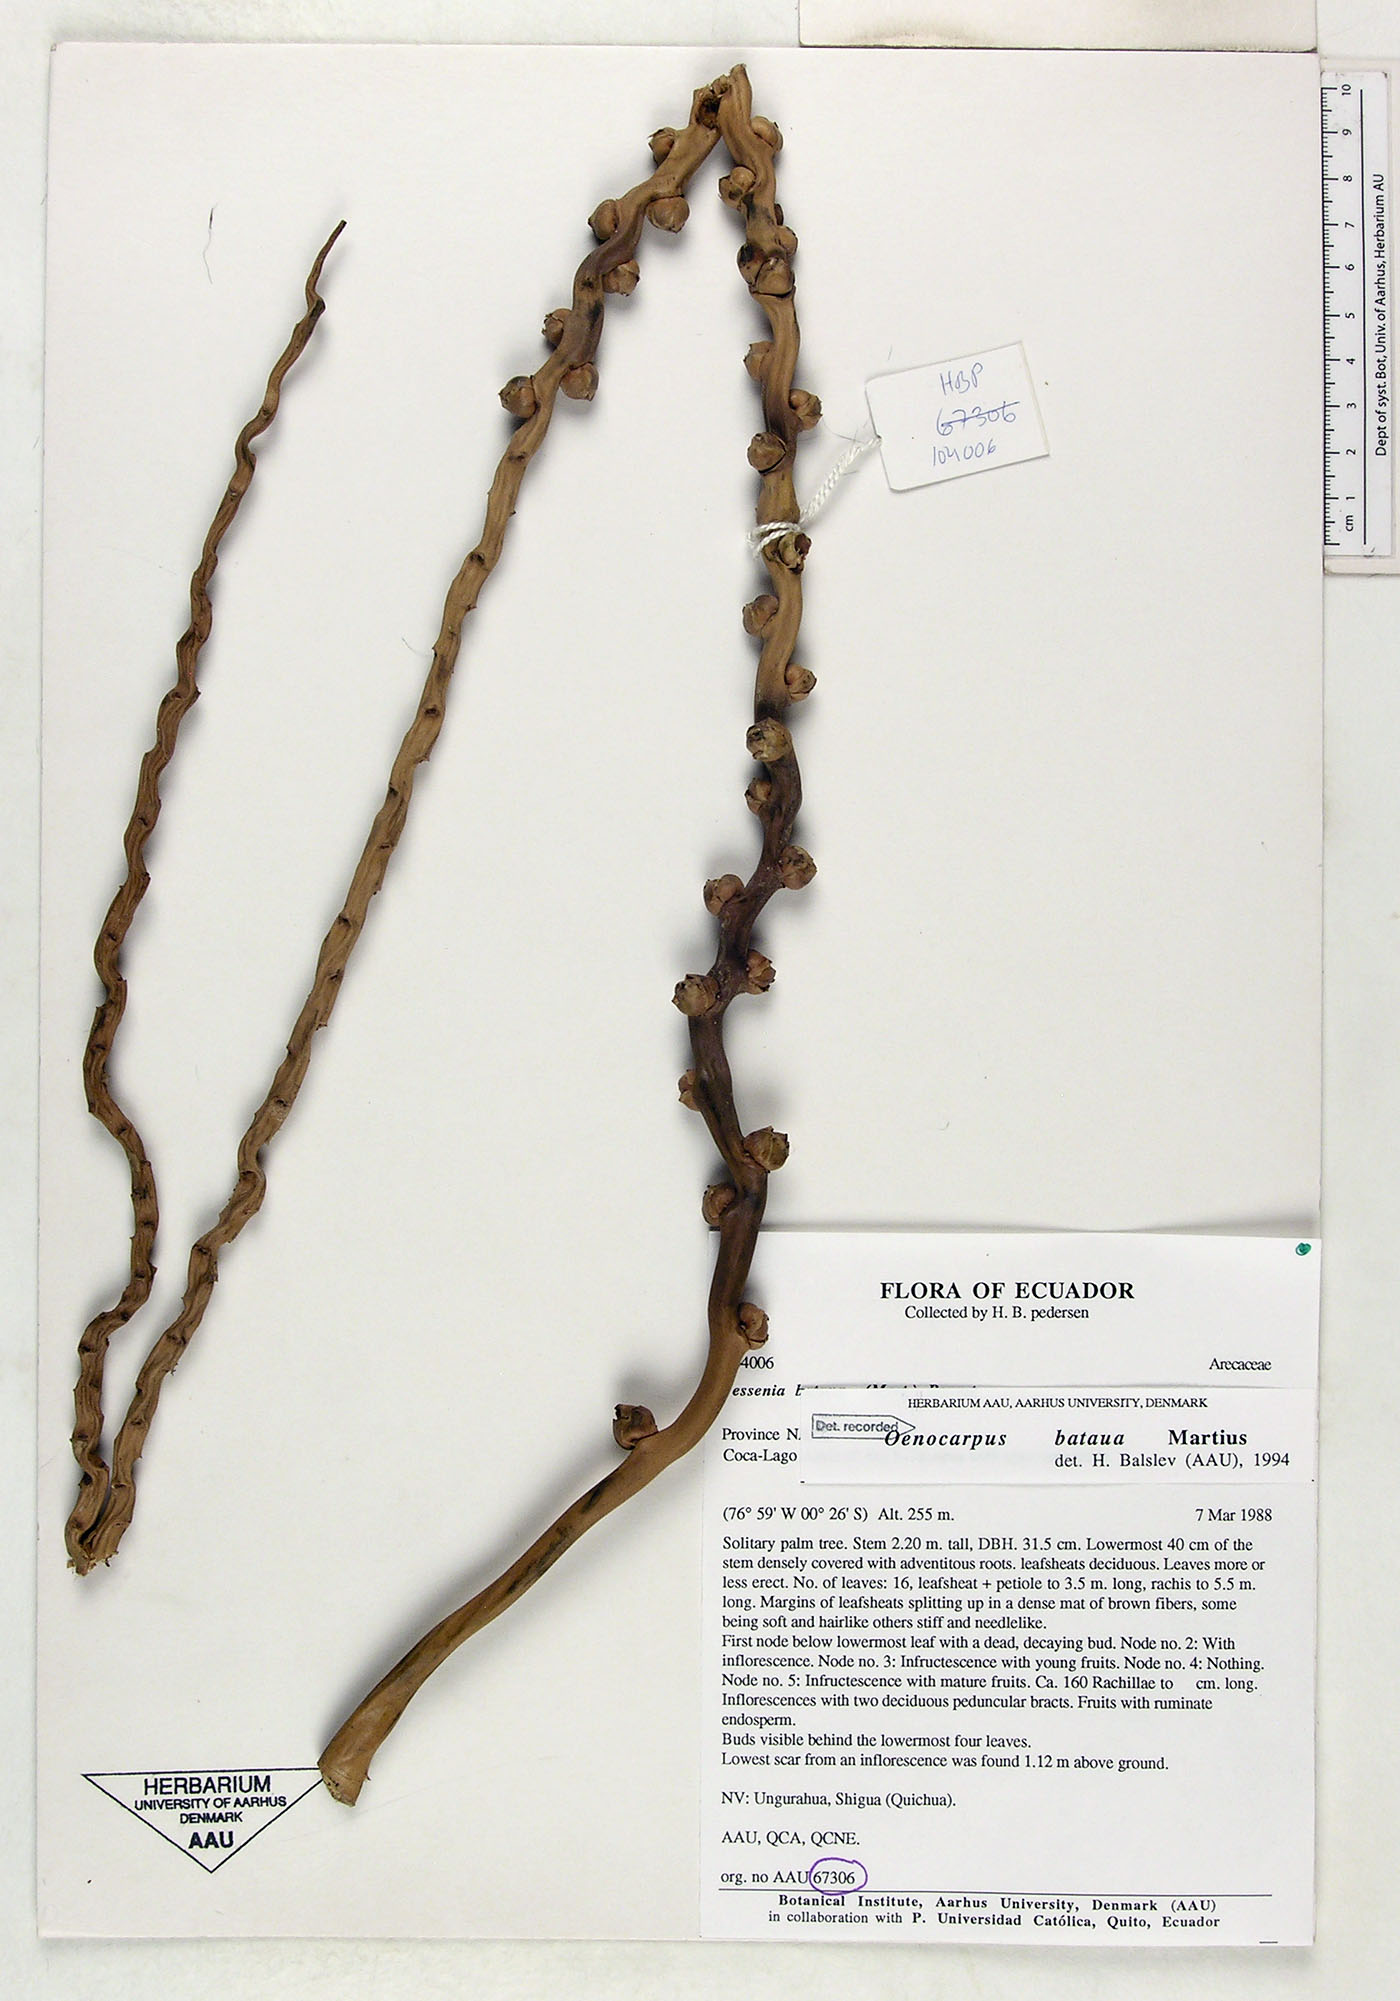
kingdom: Plantae
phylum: Tracheophyta
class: Liliopsida
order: Arecales
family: Arecaceae
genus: Oenocarpus
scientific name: Oenocarpus bataua
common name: Bataua palm
